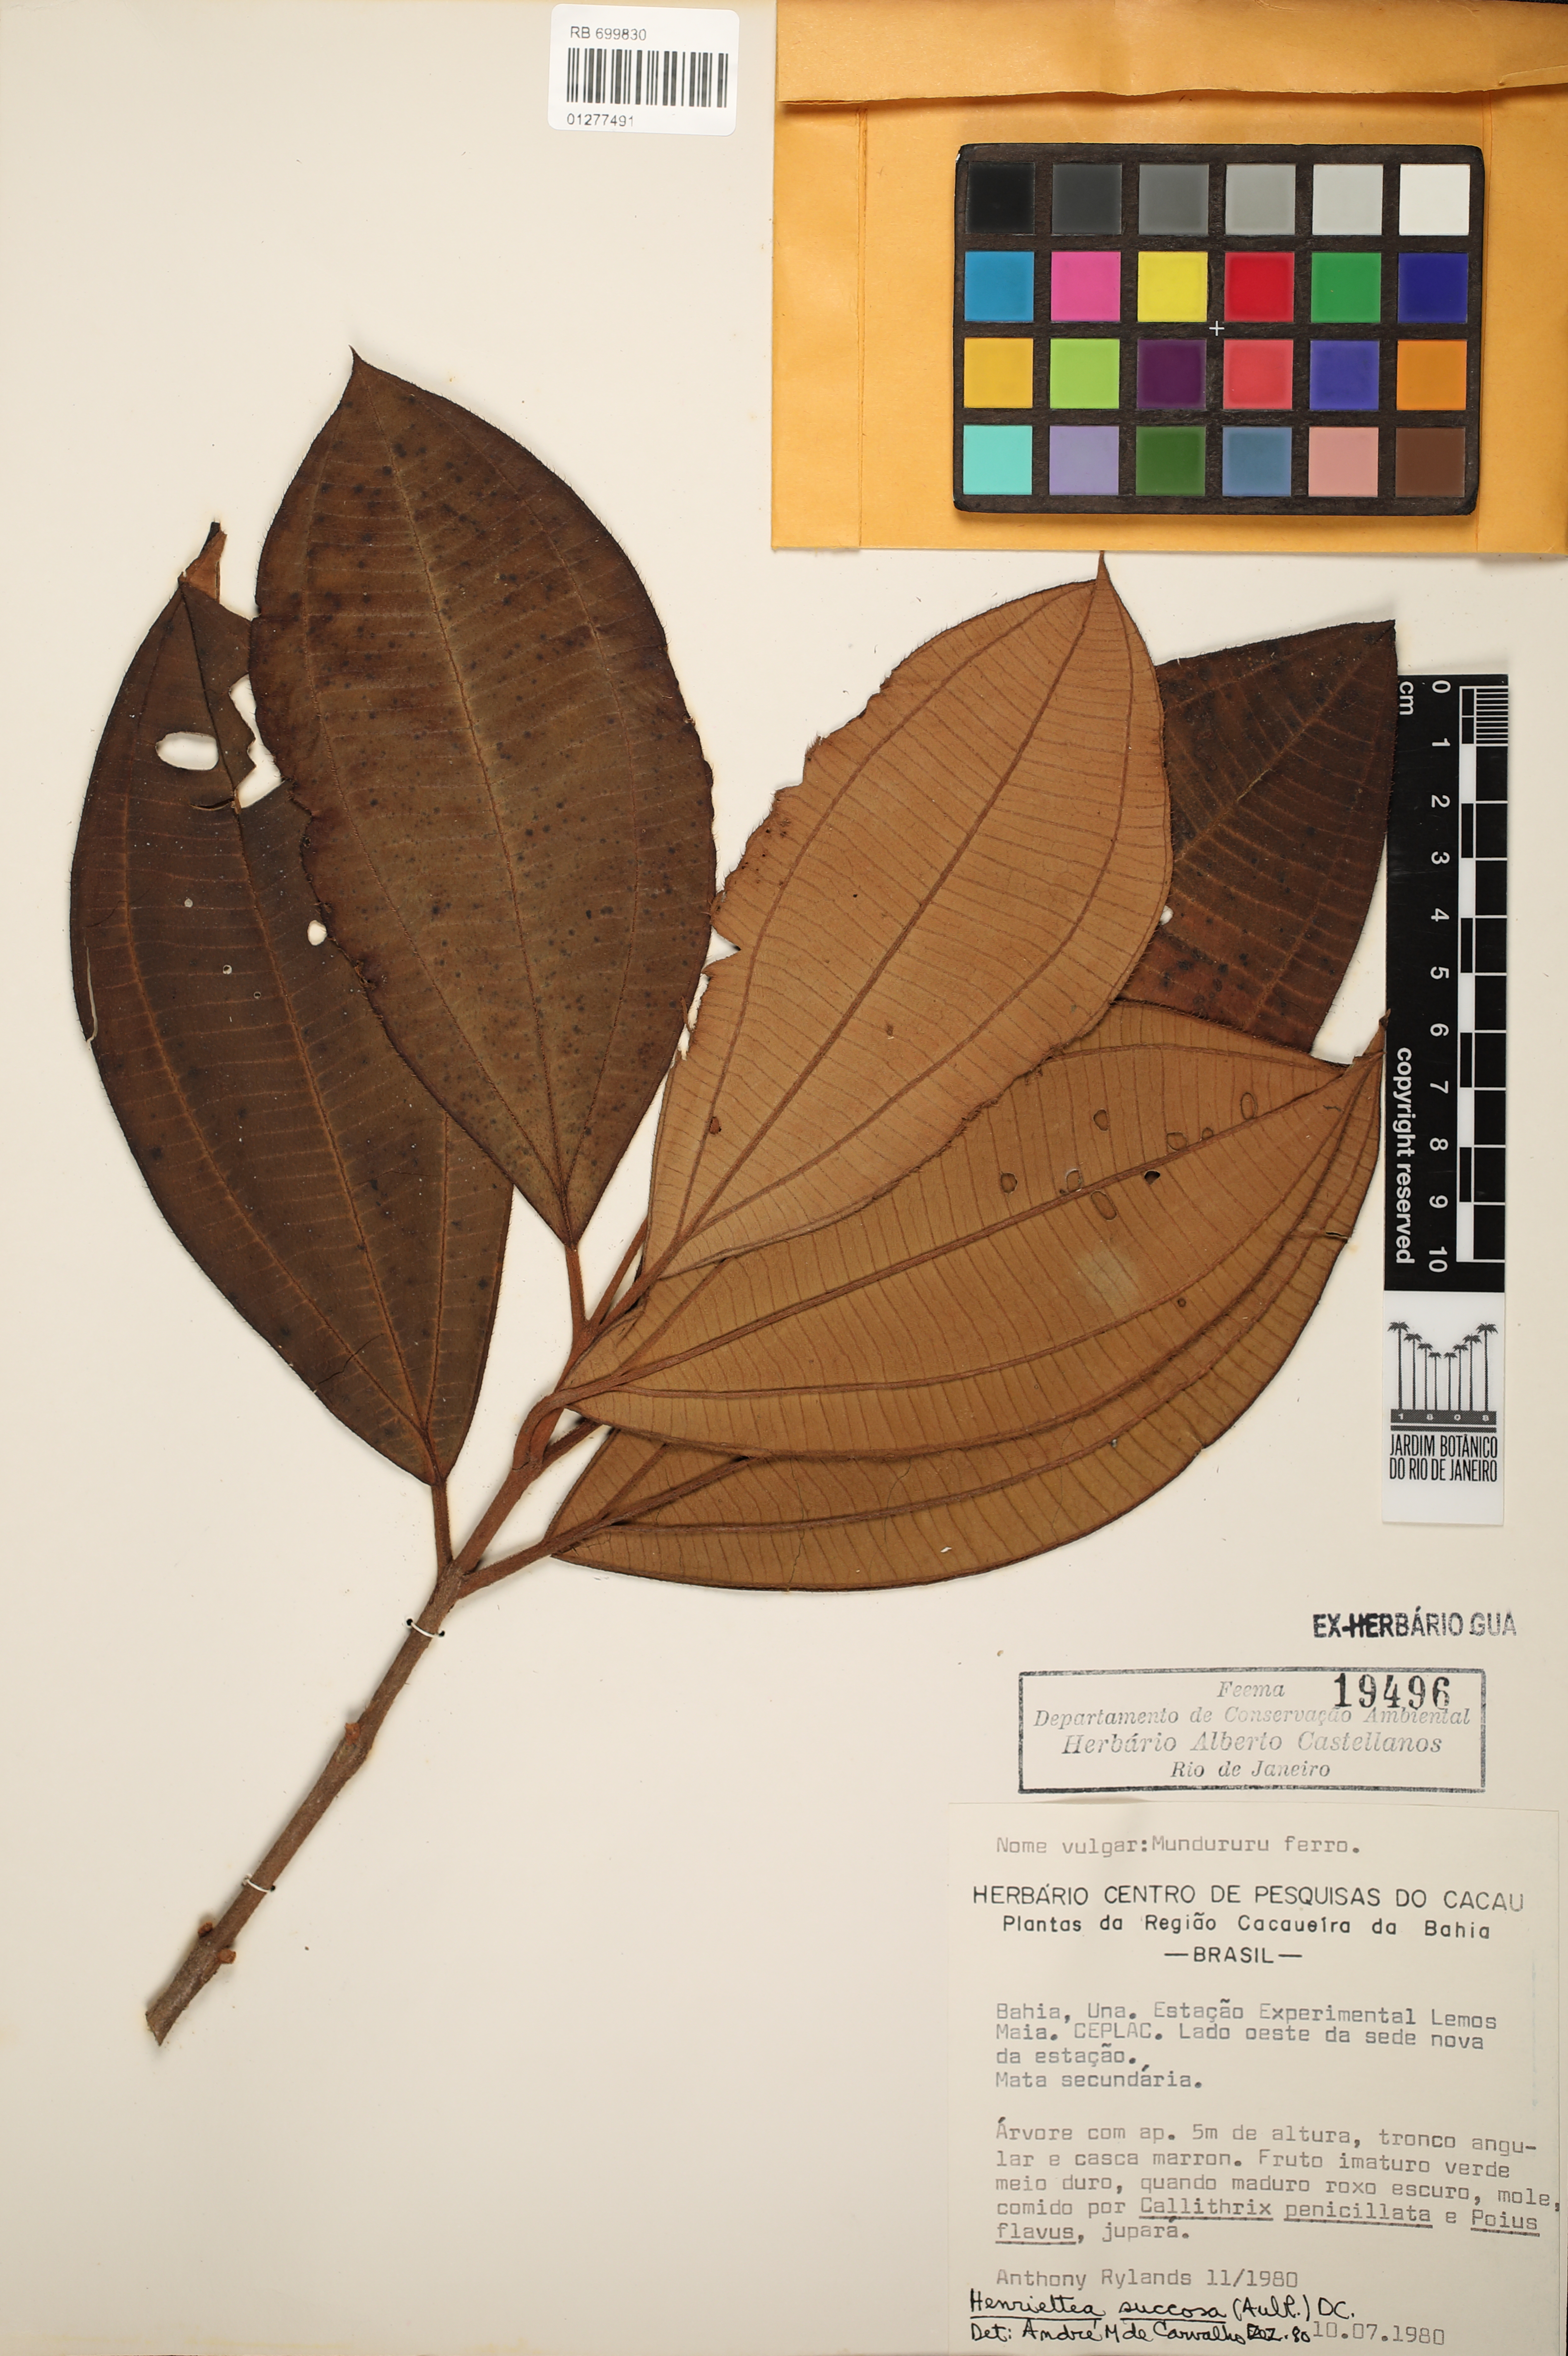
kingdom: Plantae
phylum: Tracheophyta
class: Magnoliopsida
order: Myrtales
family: Melastomataceae
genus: Henriettea
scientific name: Henriettea succosa
